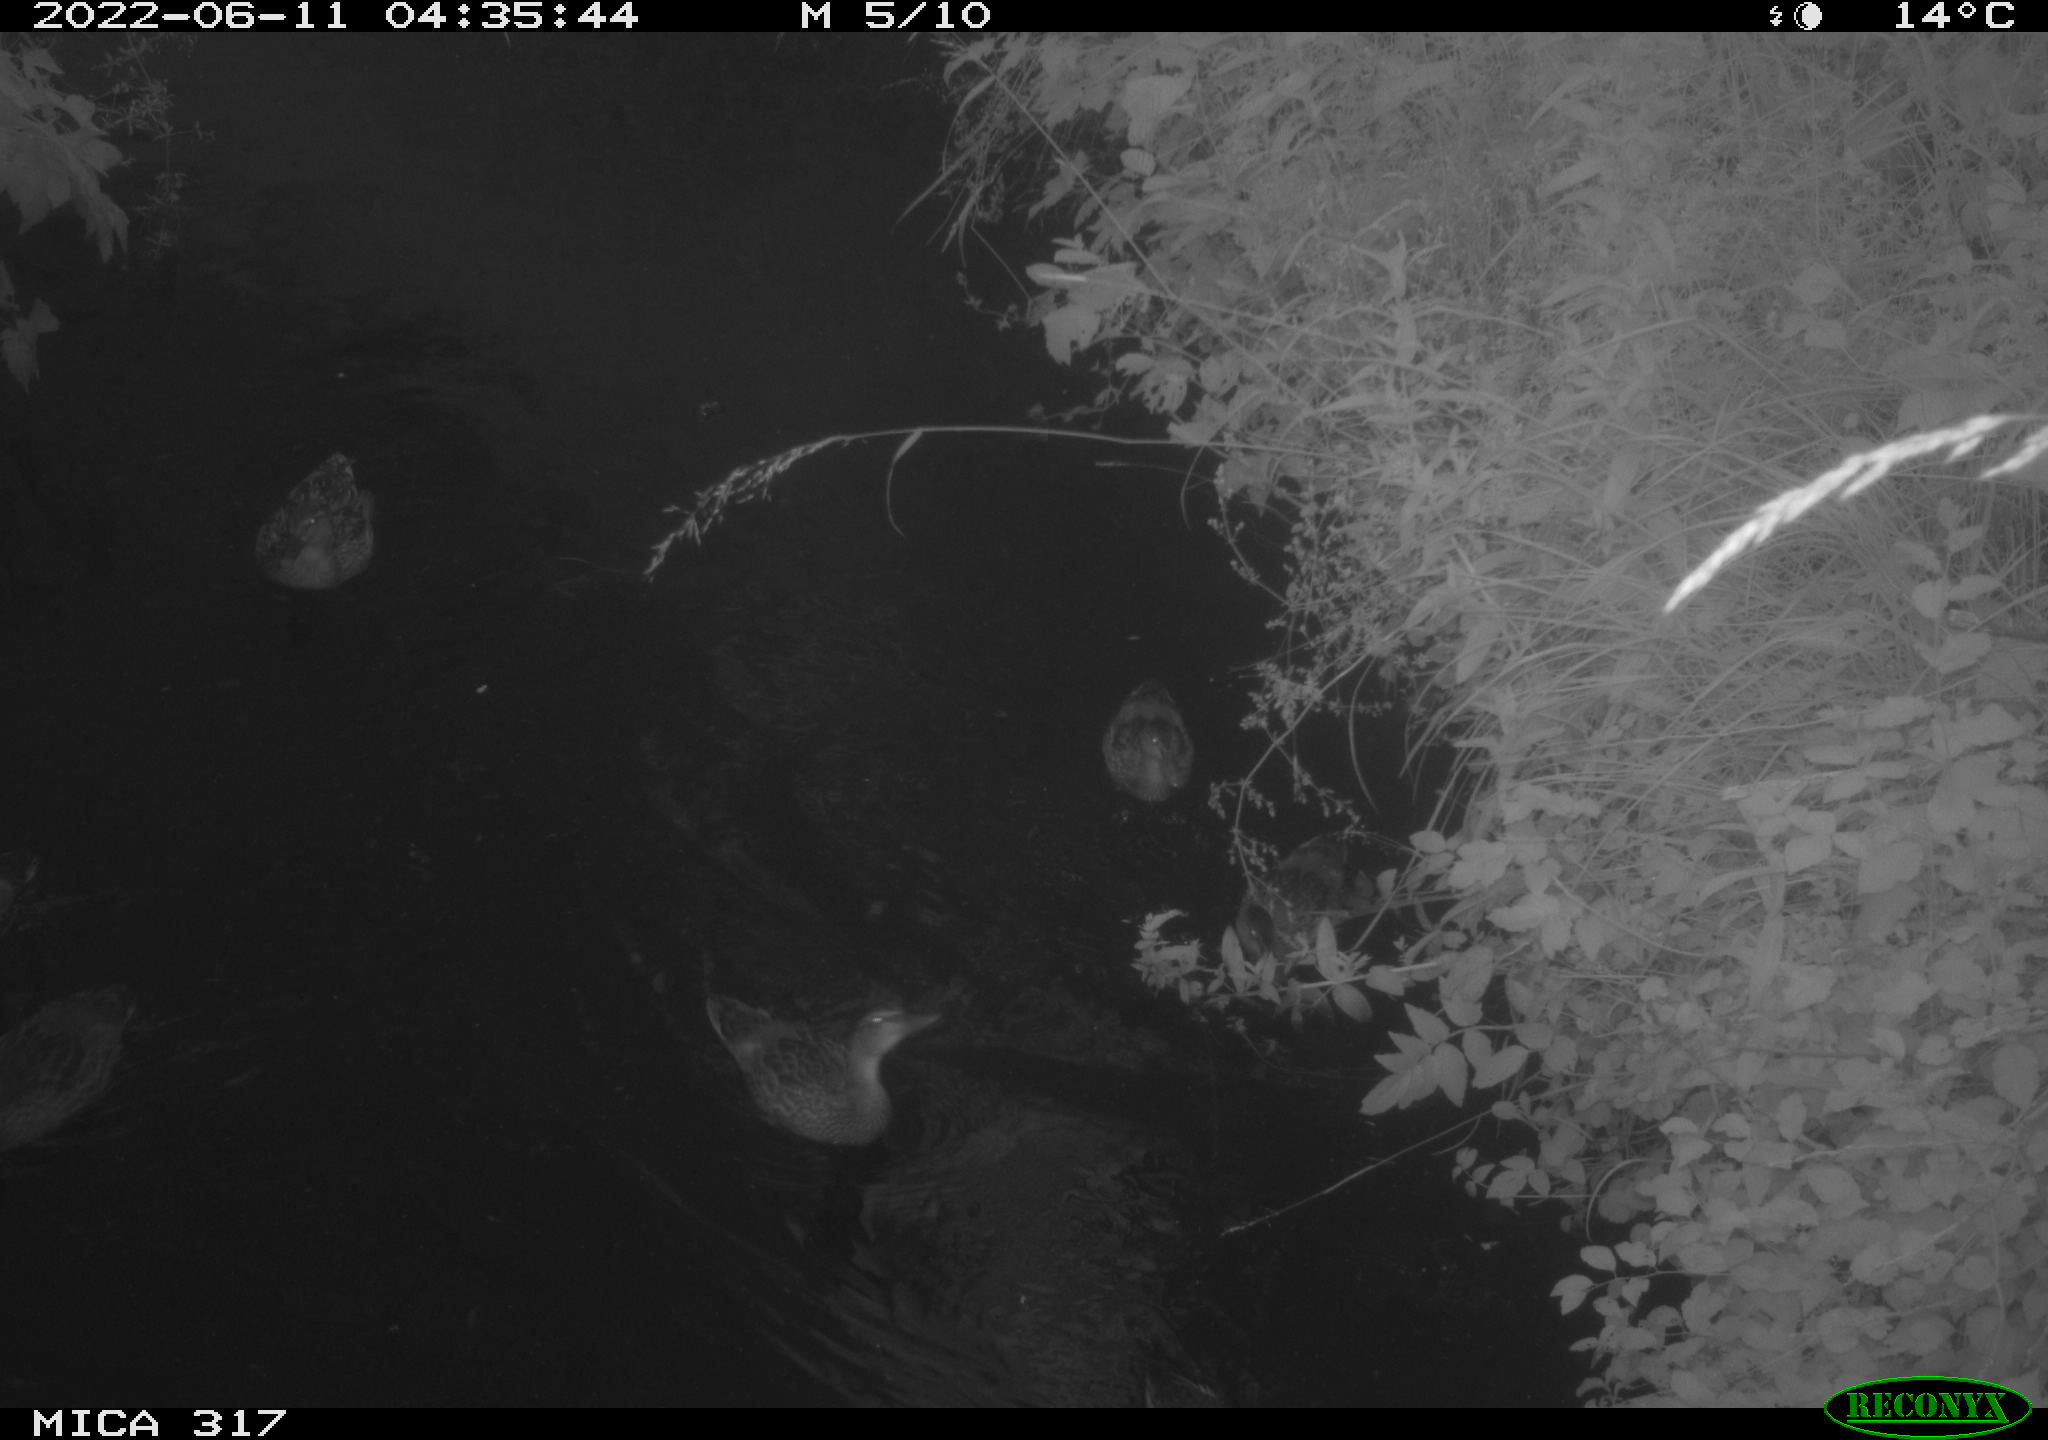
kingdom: Animalia
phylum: Chordata
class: Aves
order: Anseriformes
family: Anatidae
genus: Anas
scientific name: Anas
